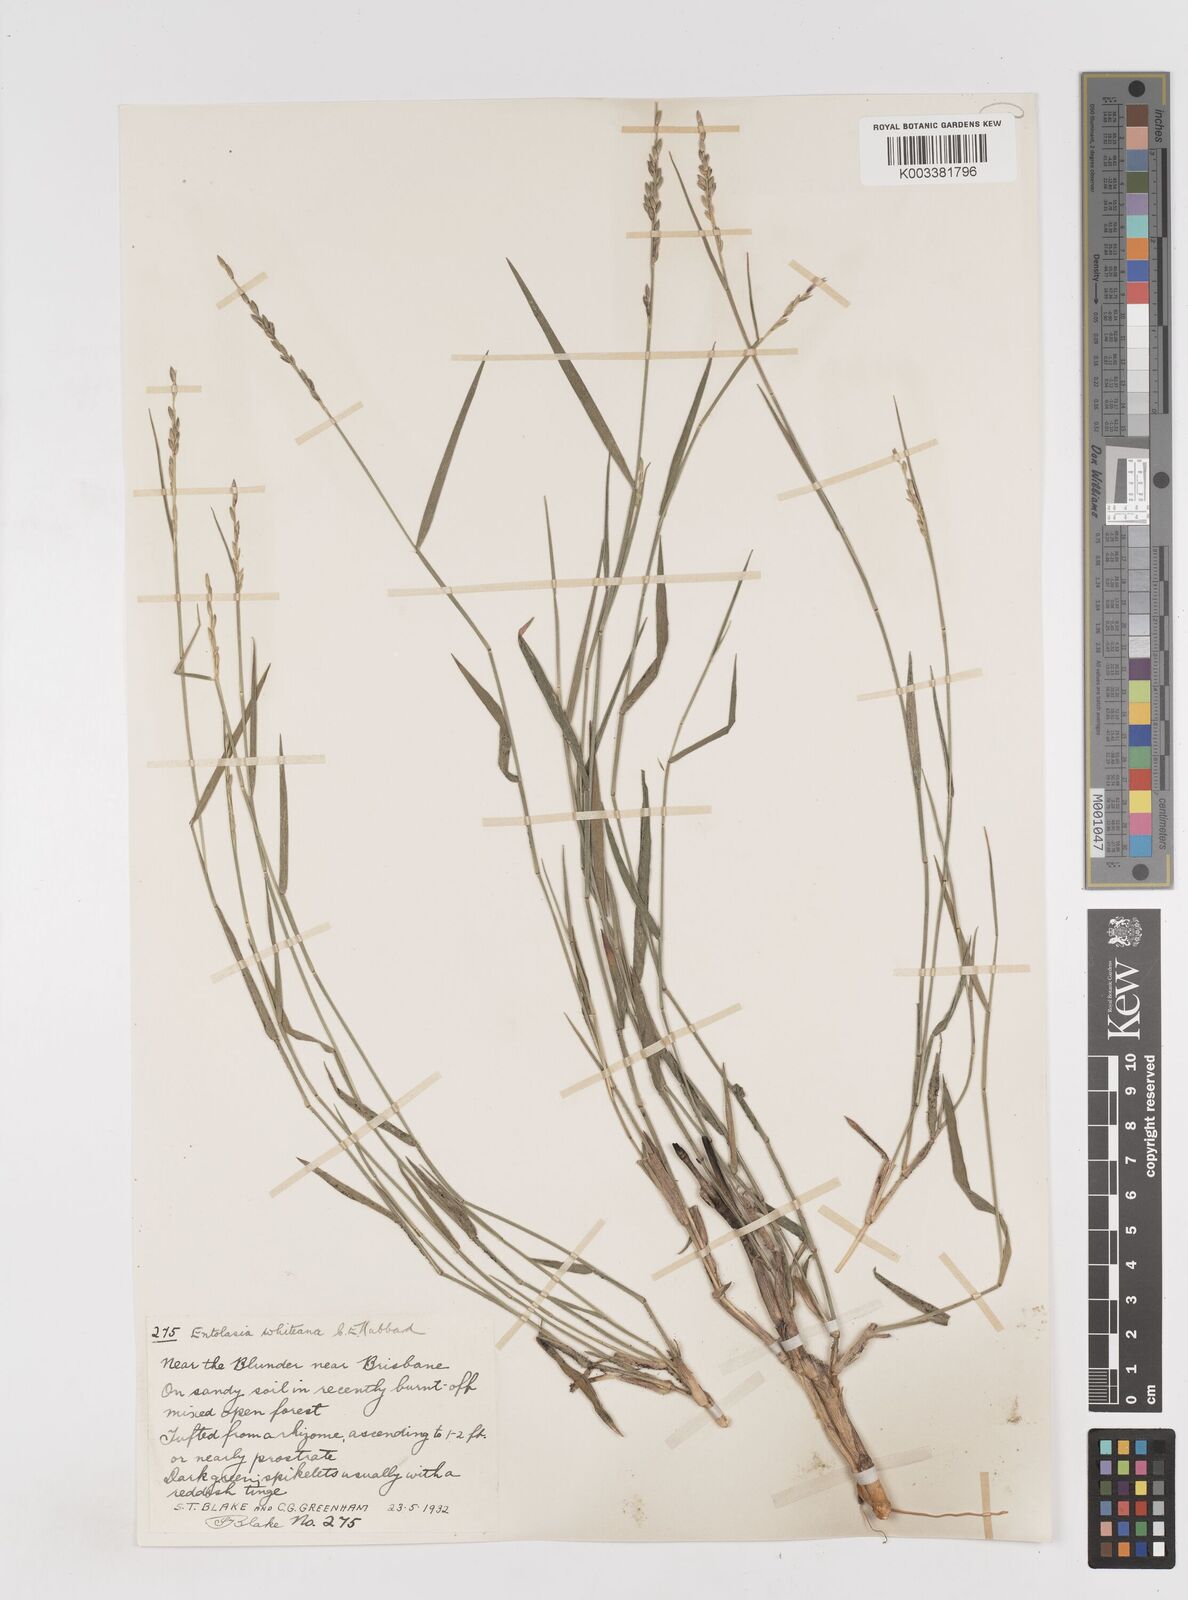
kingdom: Plantae
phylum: Tracheophyta
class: Liliopsida
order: Poales
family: Poaceae
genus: Entolasia
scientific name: Entolasia whiteana
